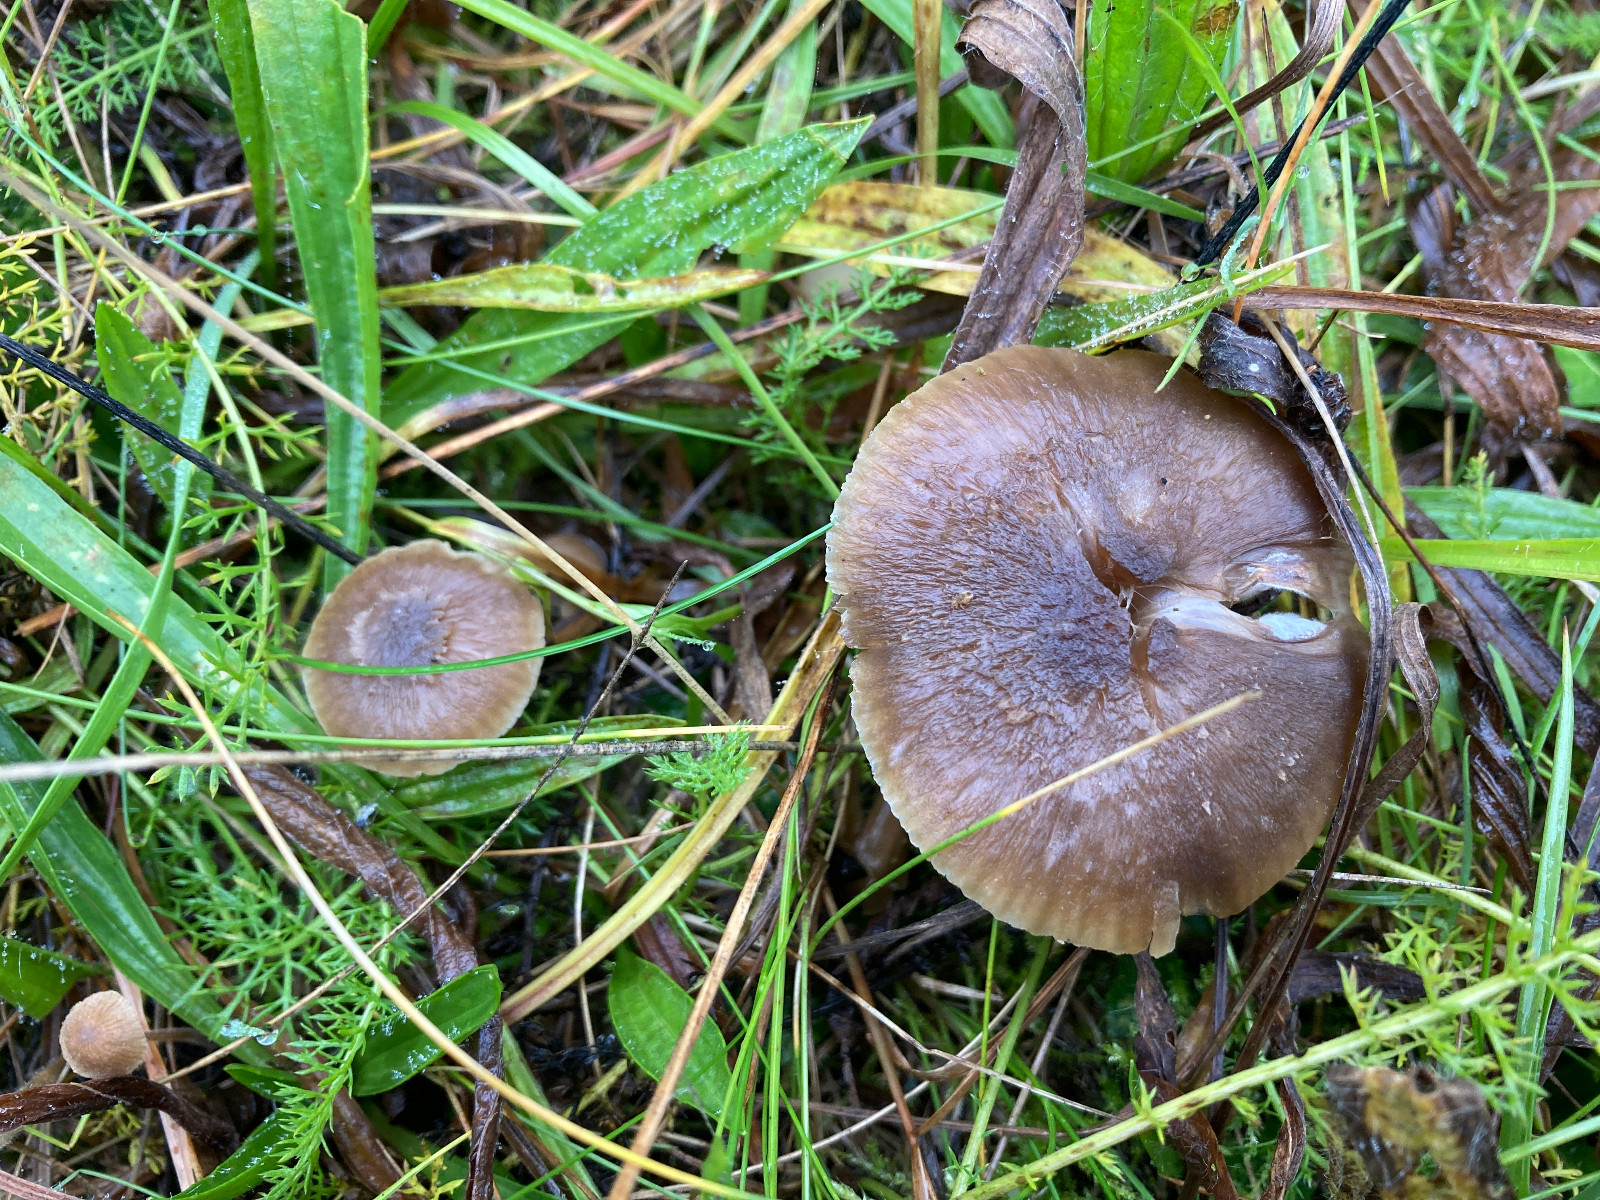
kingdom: Fungi
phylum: Basidiomycota
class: Agaricomycetes
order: Agaricales
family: Hygrophoraceae
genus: Neohygrocybe
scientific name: Neohygrocybe nitrata
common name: stinkende vokshat
